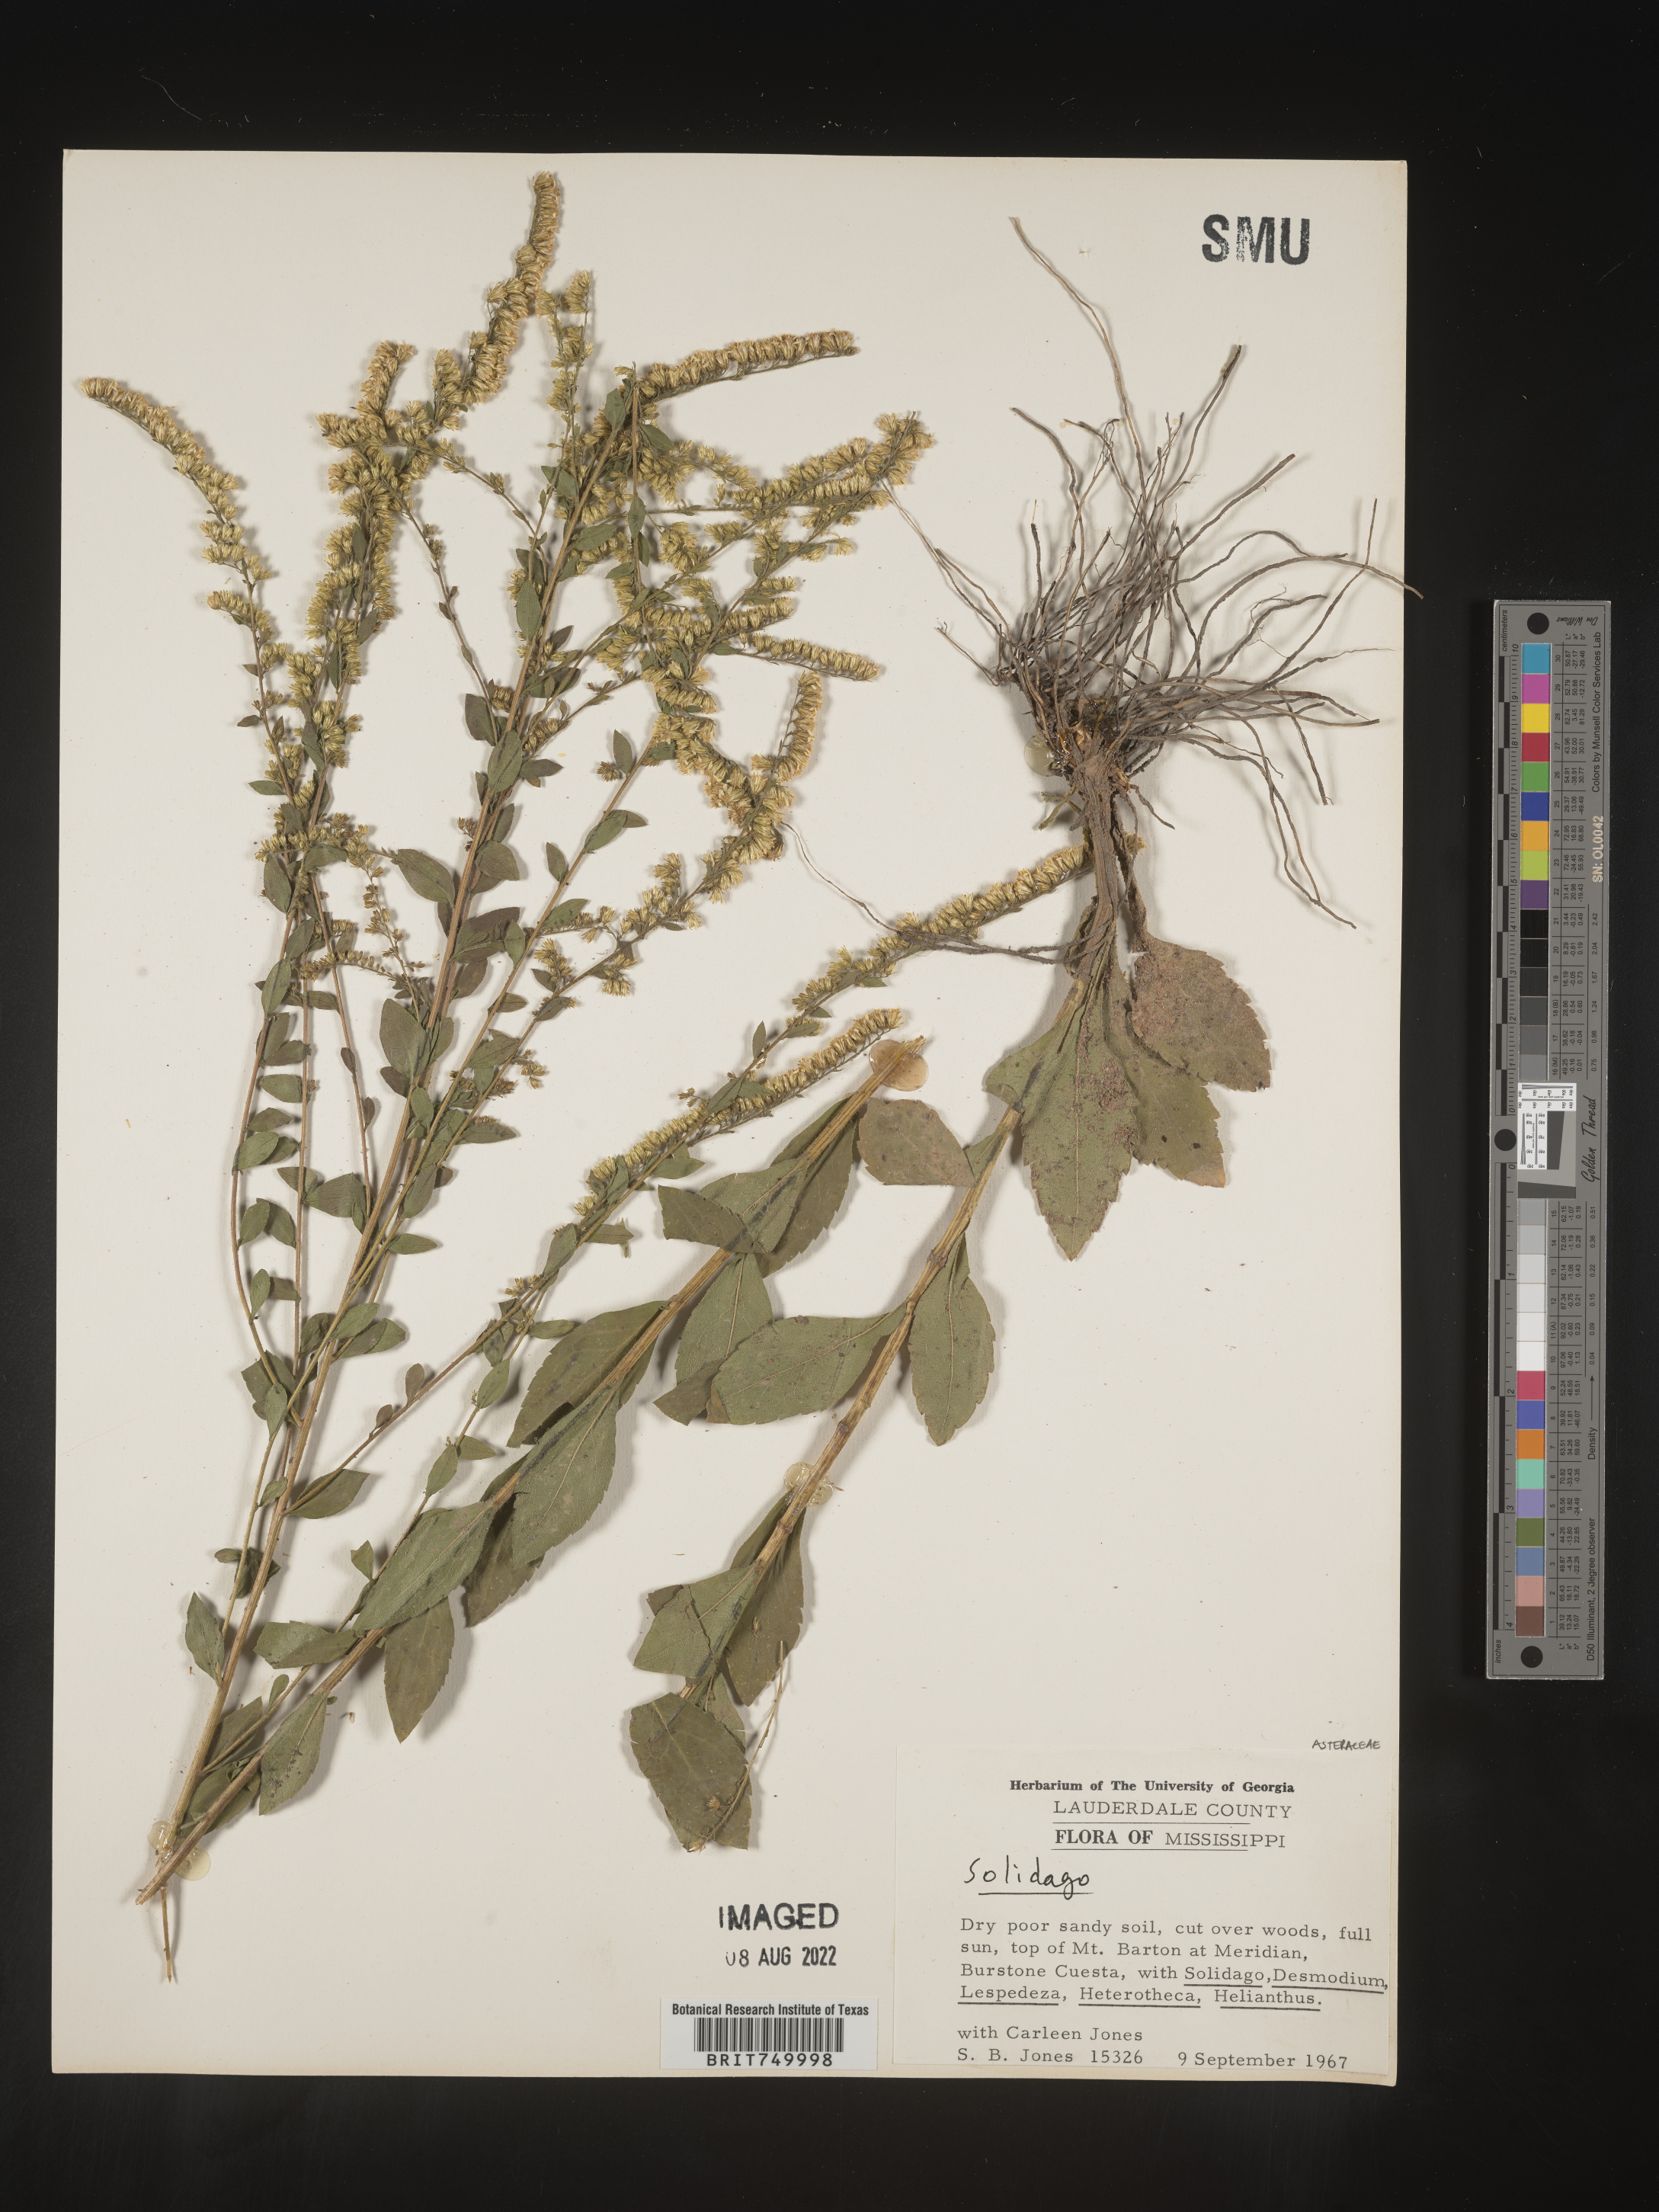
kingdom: Plantae
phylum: Tracheophyta
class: Magnoliopsida
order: Asterales
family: Asteraceae
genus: Solidago
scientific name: Solidago
